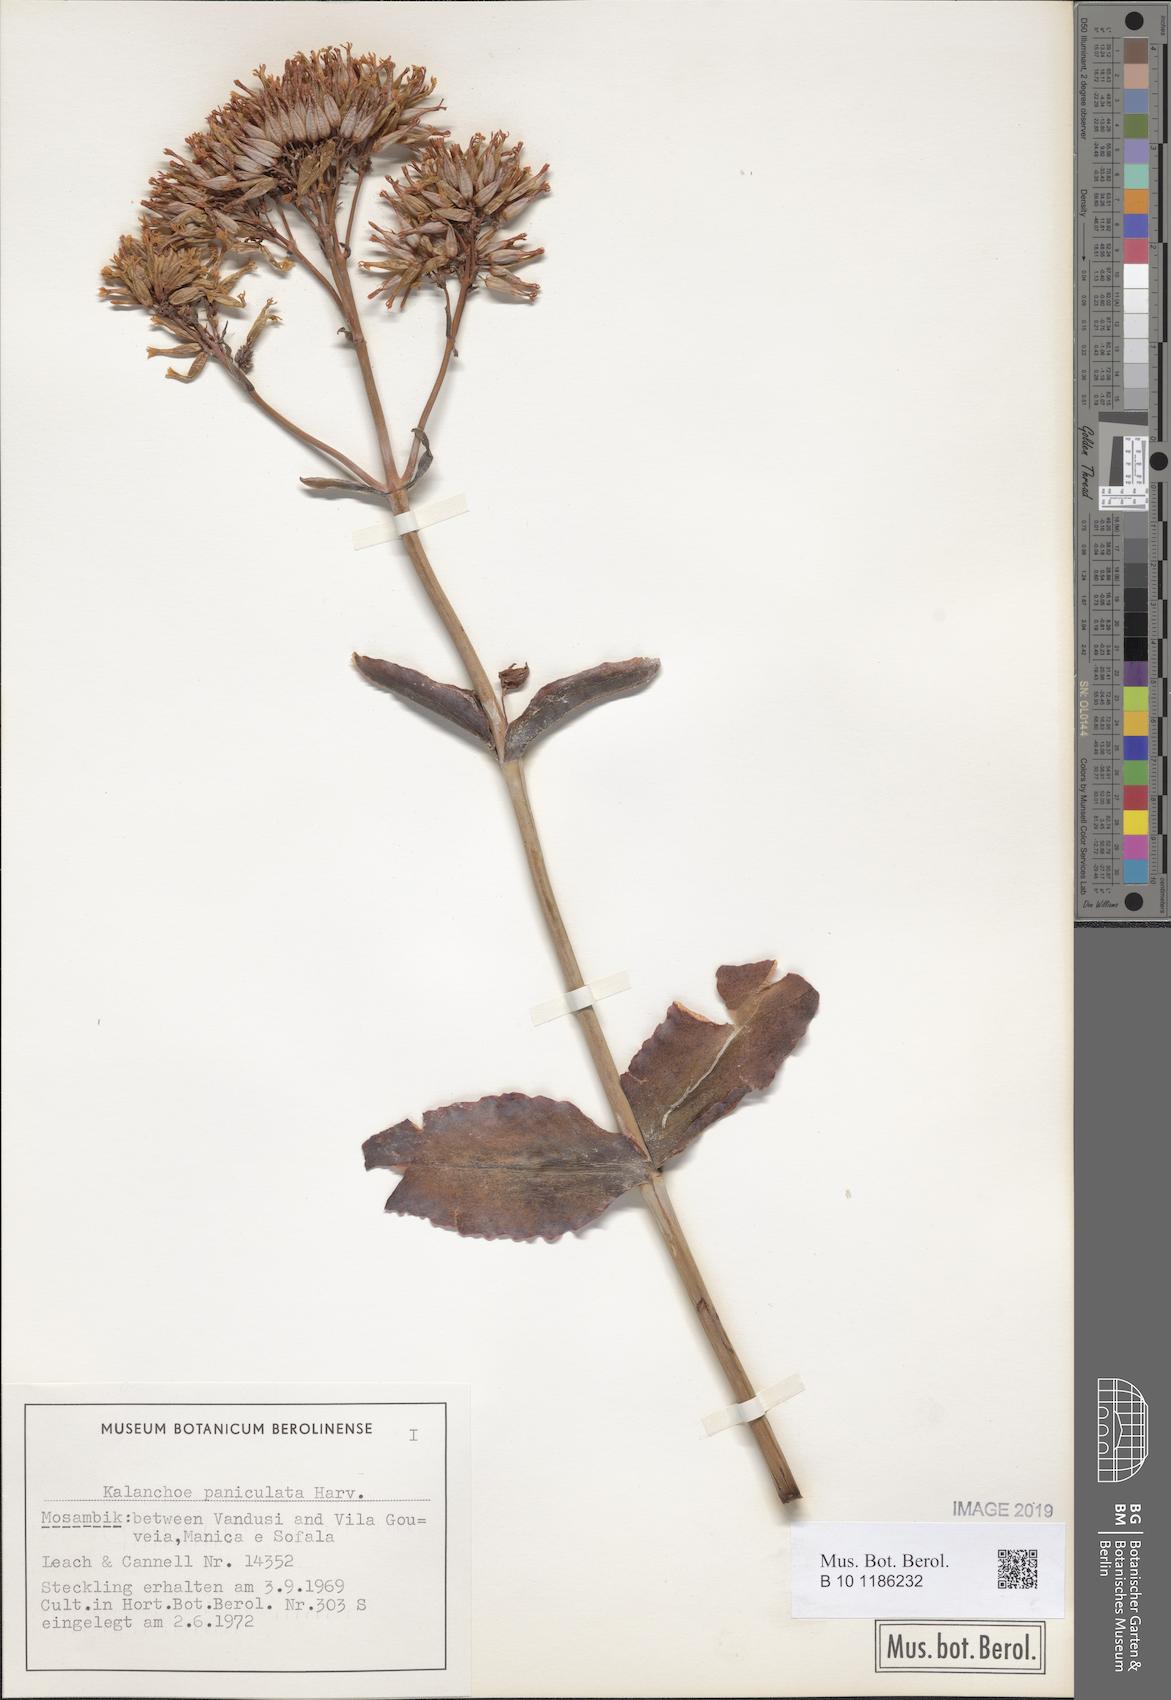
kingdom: Plantae
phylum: Tracheophyta
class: Magnoliopsida
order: Saxifragales
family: Crassulaceae
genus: Kalanchoe
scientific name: Kalanchoe paniculata
